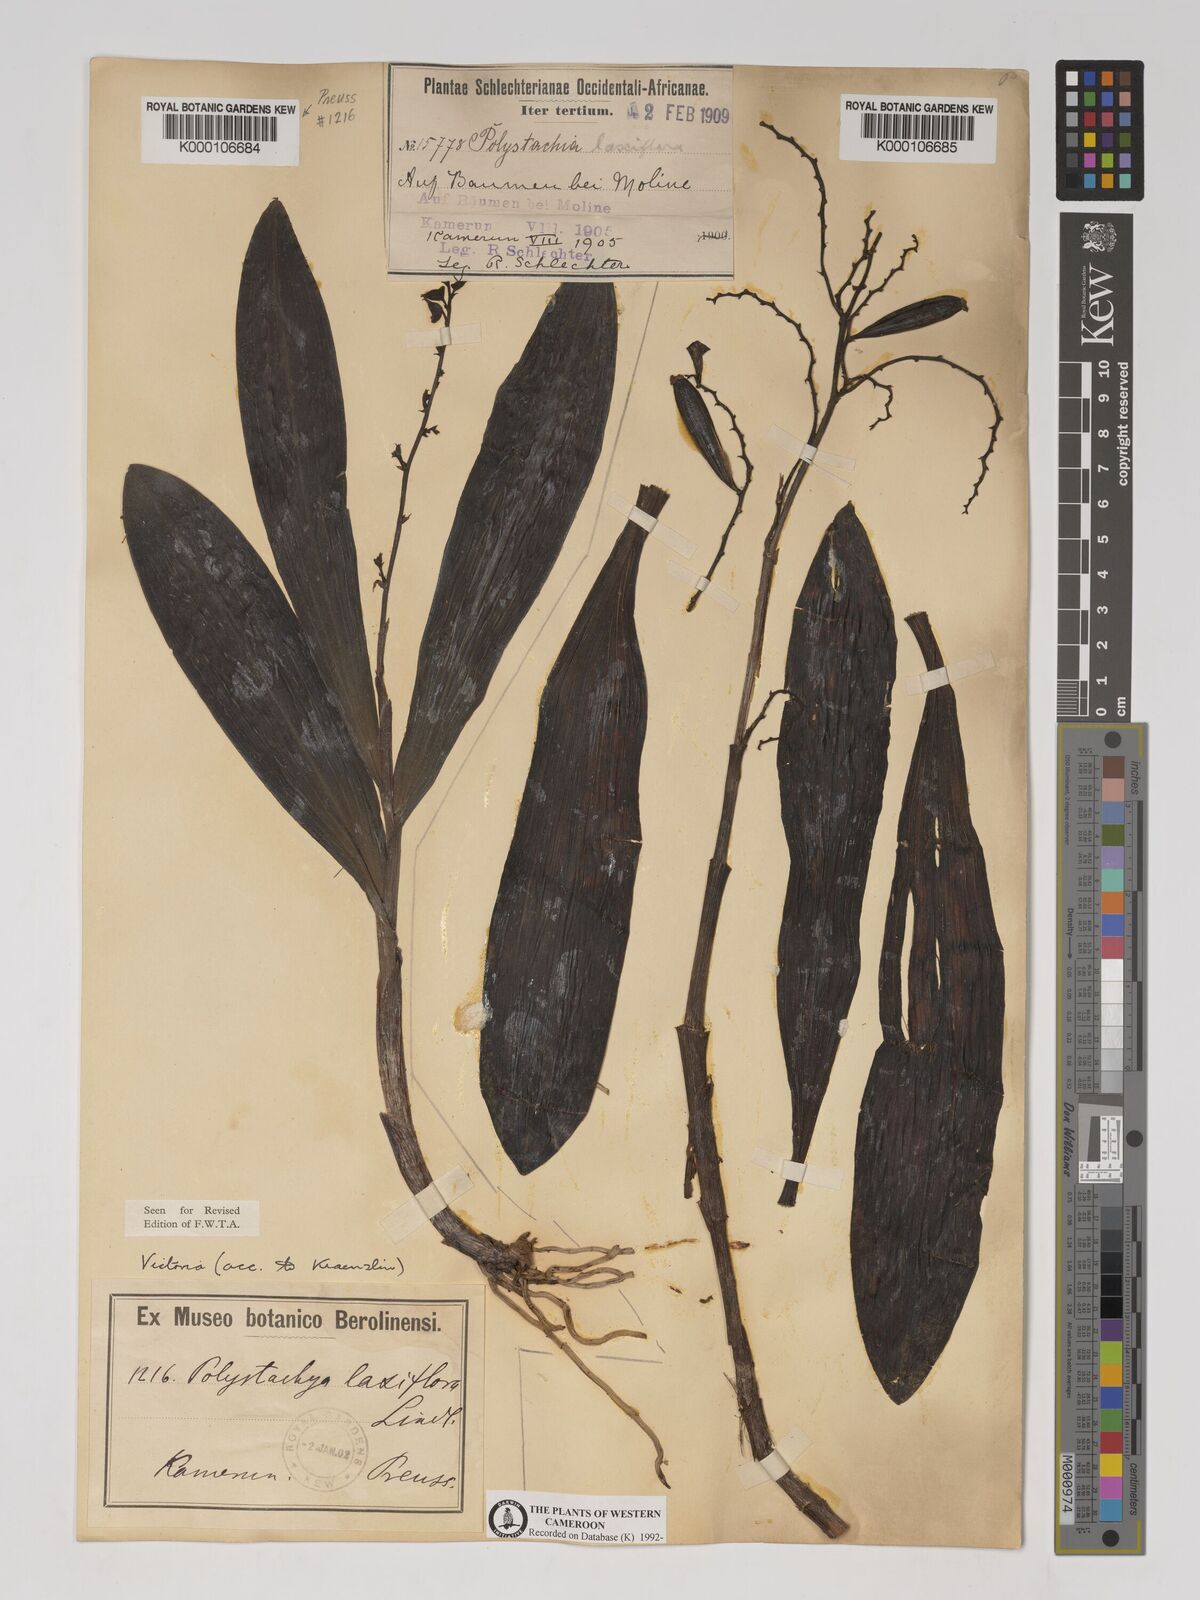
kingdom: Plantae
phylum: Tracheophyta
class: Liliopsida
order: Asparagales
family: Orchidaceae
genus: Polystachya
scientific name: Polystachya laxiflora
